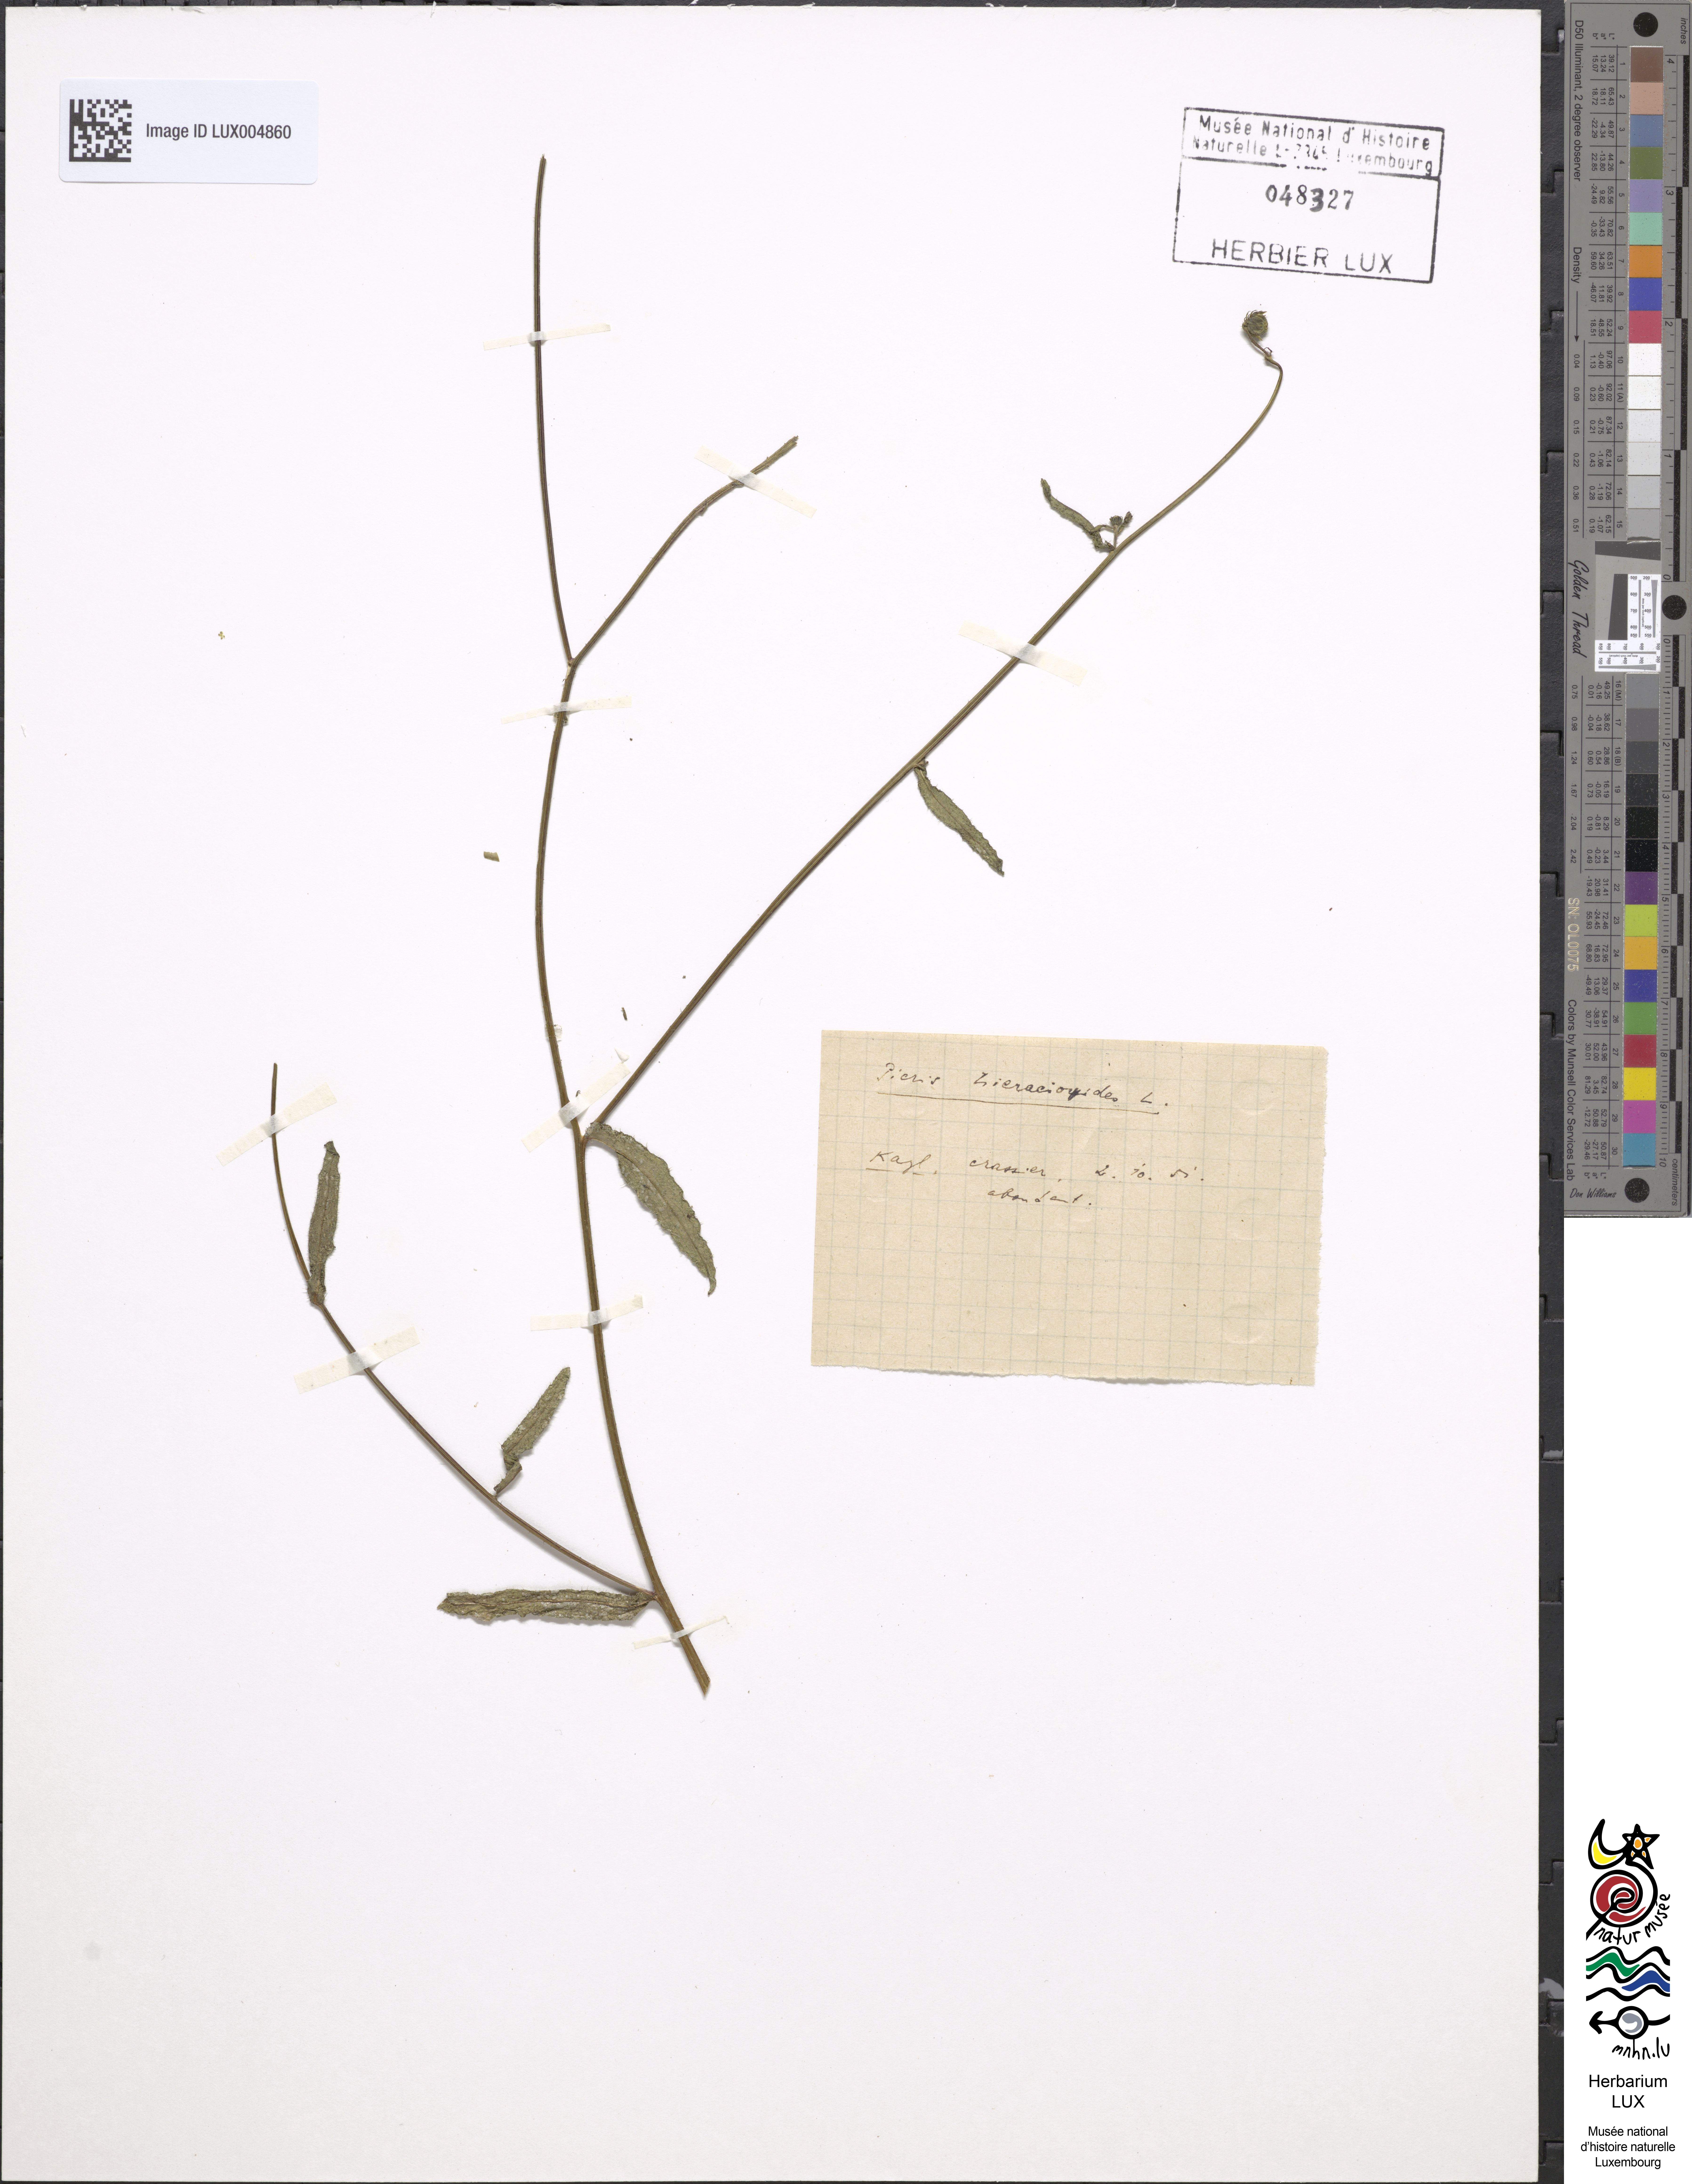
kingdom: Plantae
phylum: Tracheophyta
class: Magnoliopsida
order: Asterales
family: Asteraceae
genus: Picris
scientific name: Picris hieracioides
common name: Hawkweed oxtongue
